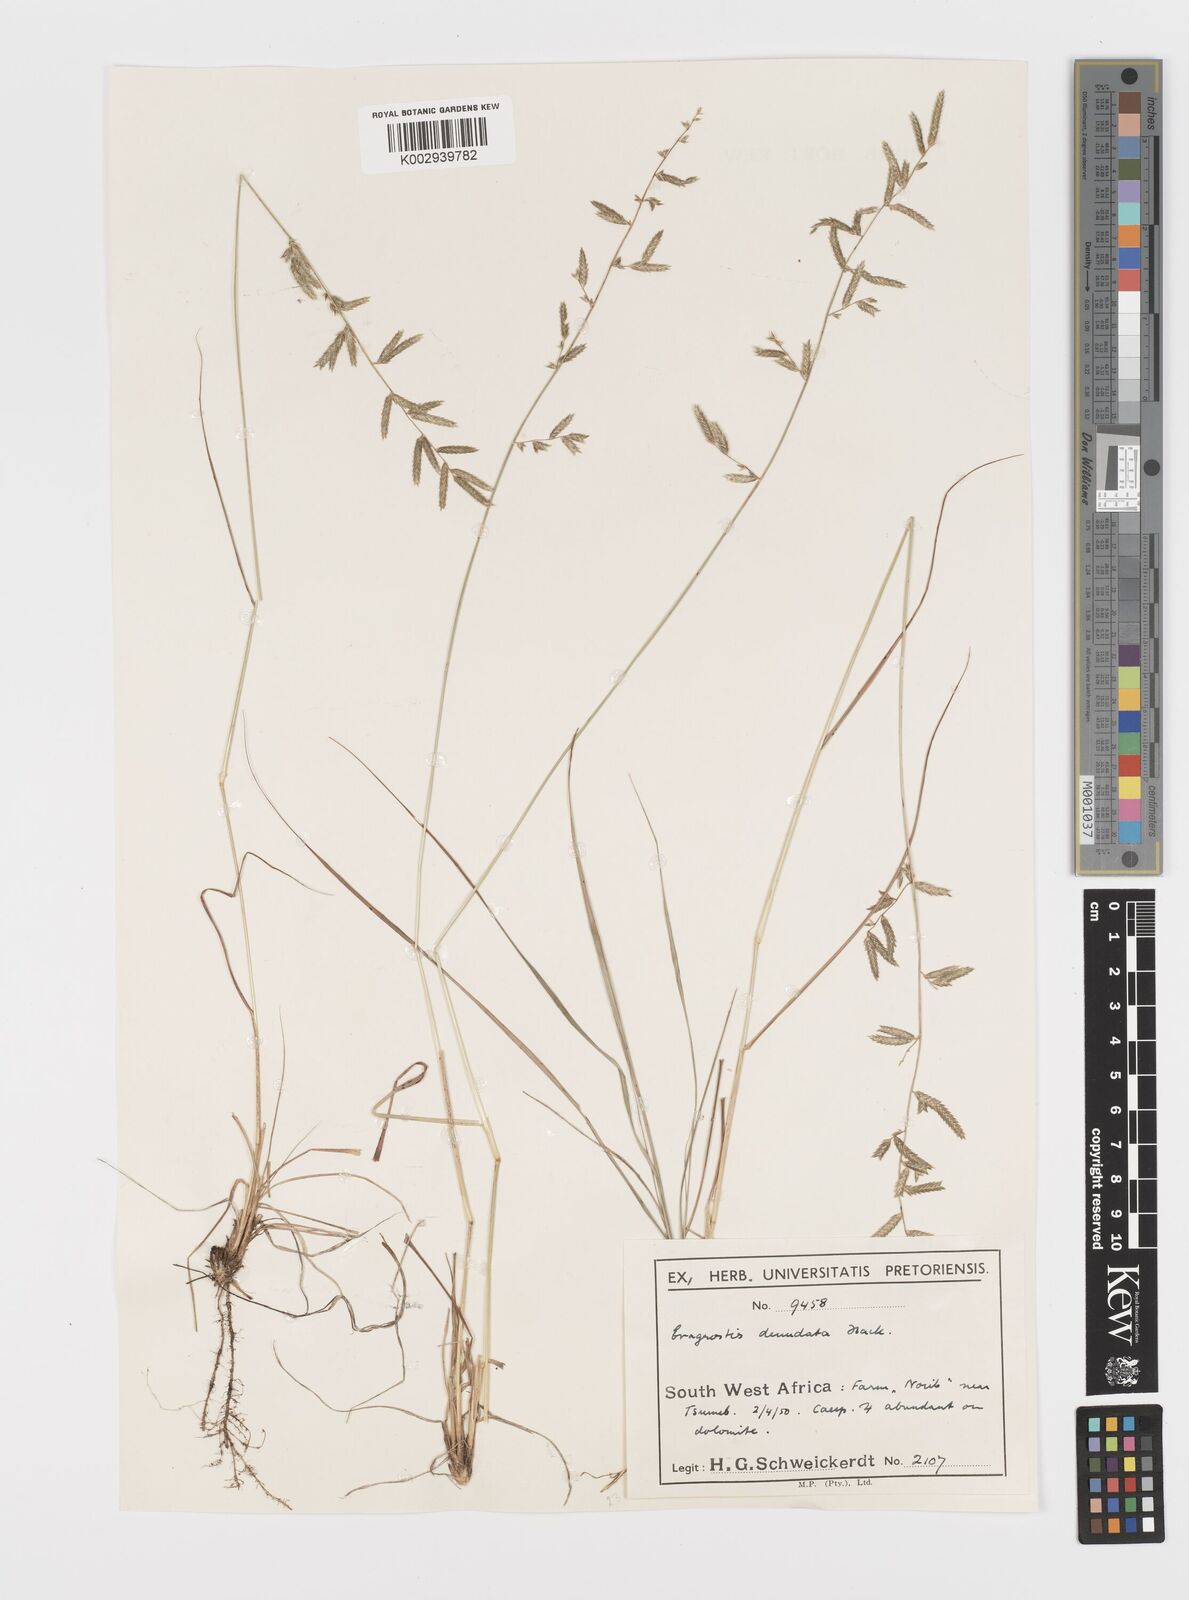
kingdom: Plantae
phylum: Tracheophyta
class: Liliopsida
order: Poales
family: Poaceae
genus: Eragrostis
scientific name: Eragrostis nindensis
